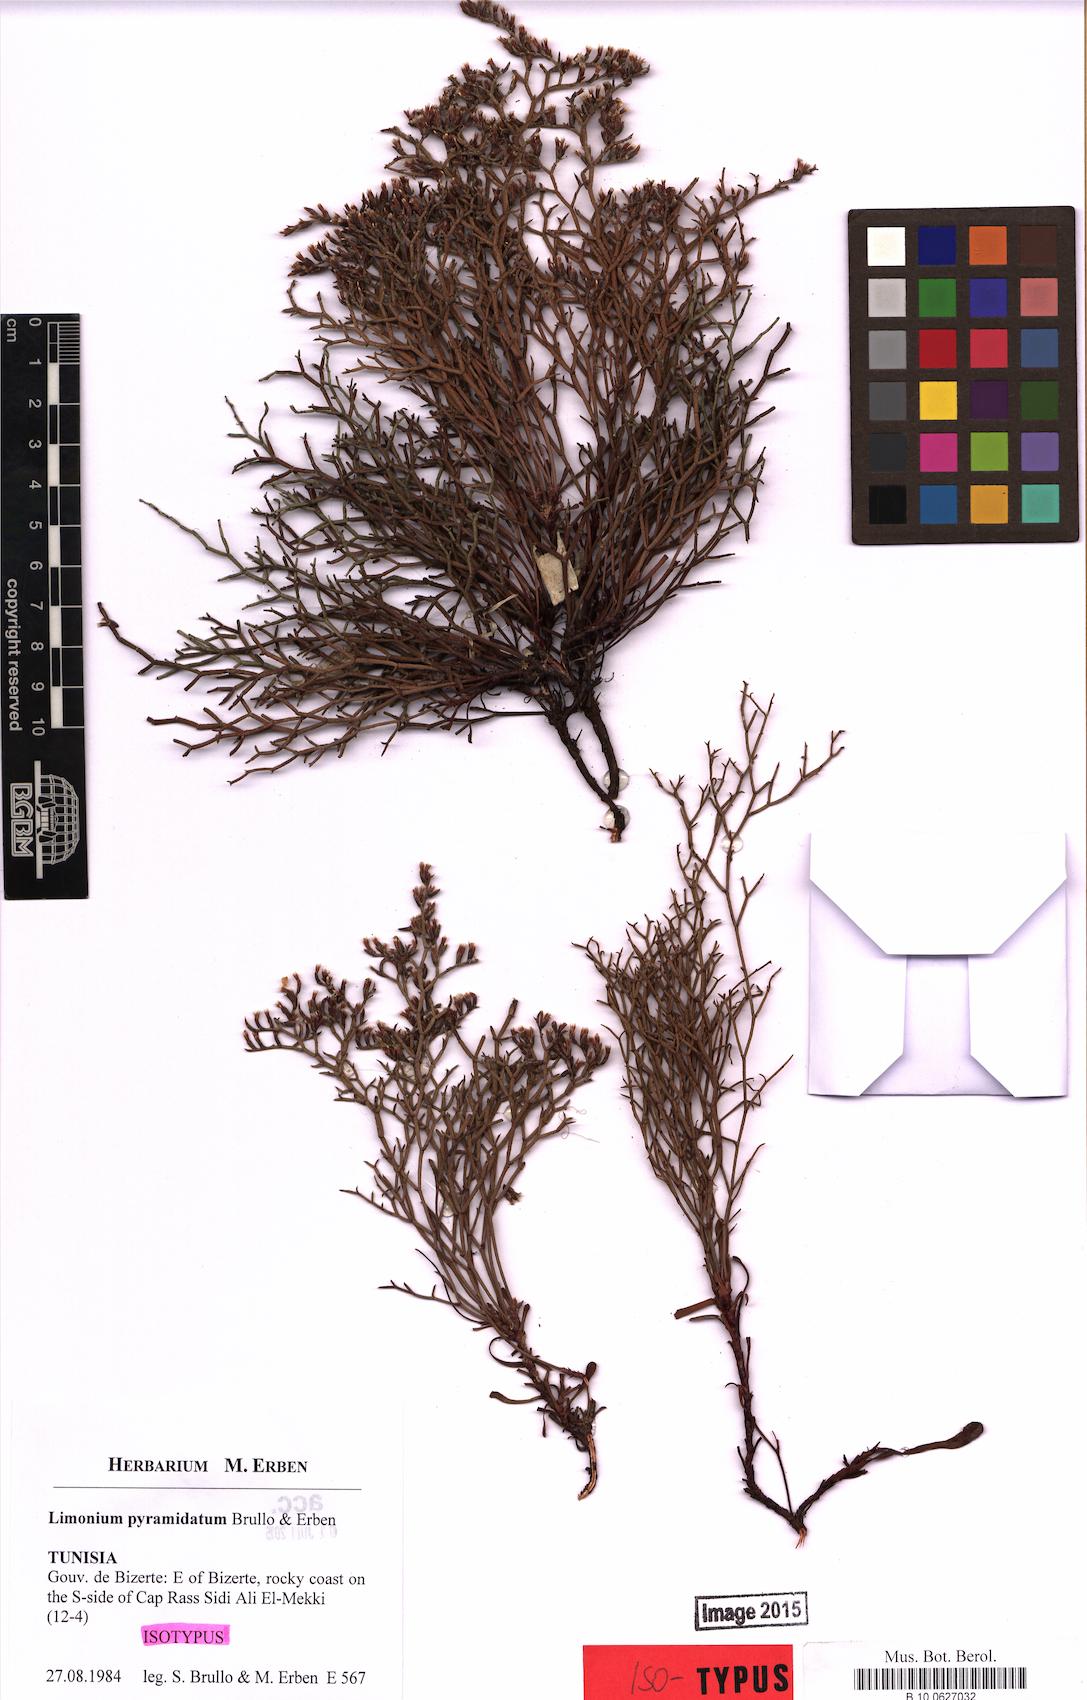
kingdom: Plantae
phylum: Tracheophyta
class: Magnoliopsida
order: Caryophyllales
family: Plumbaginaceae
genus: Limonium
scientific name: Limonium pyramidatum
